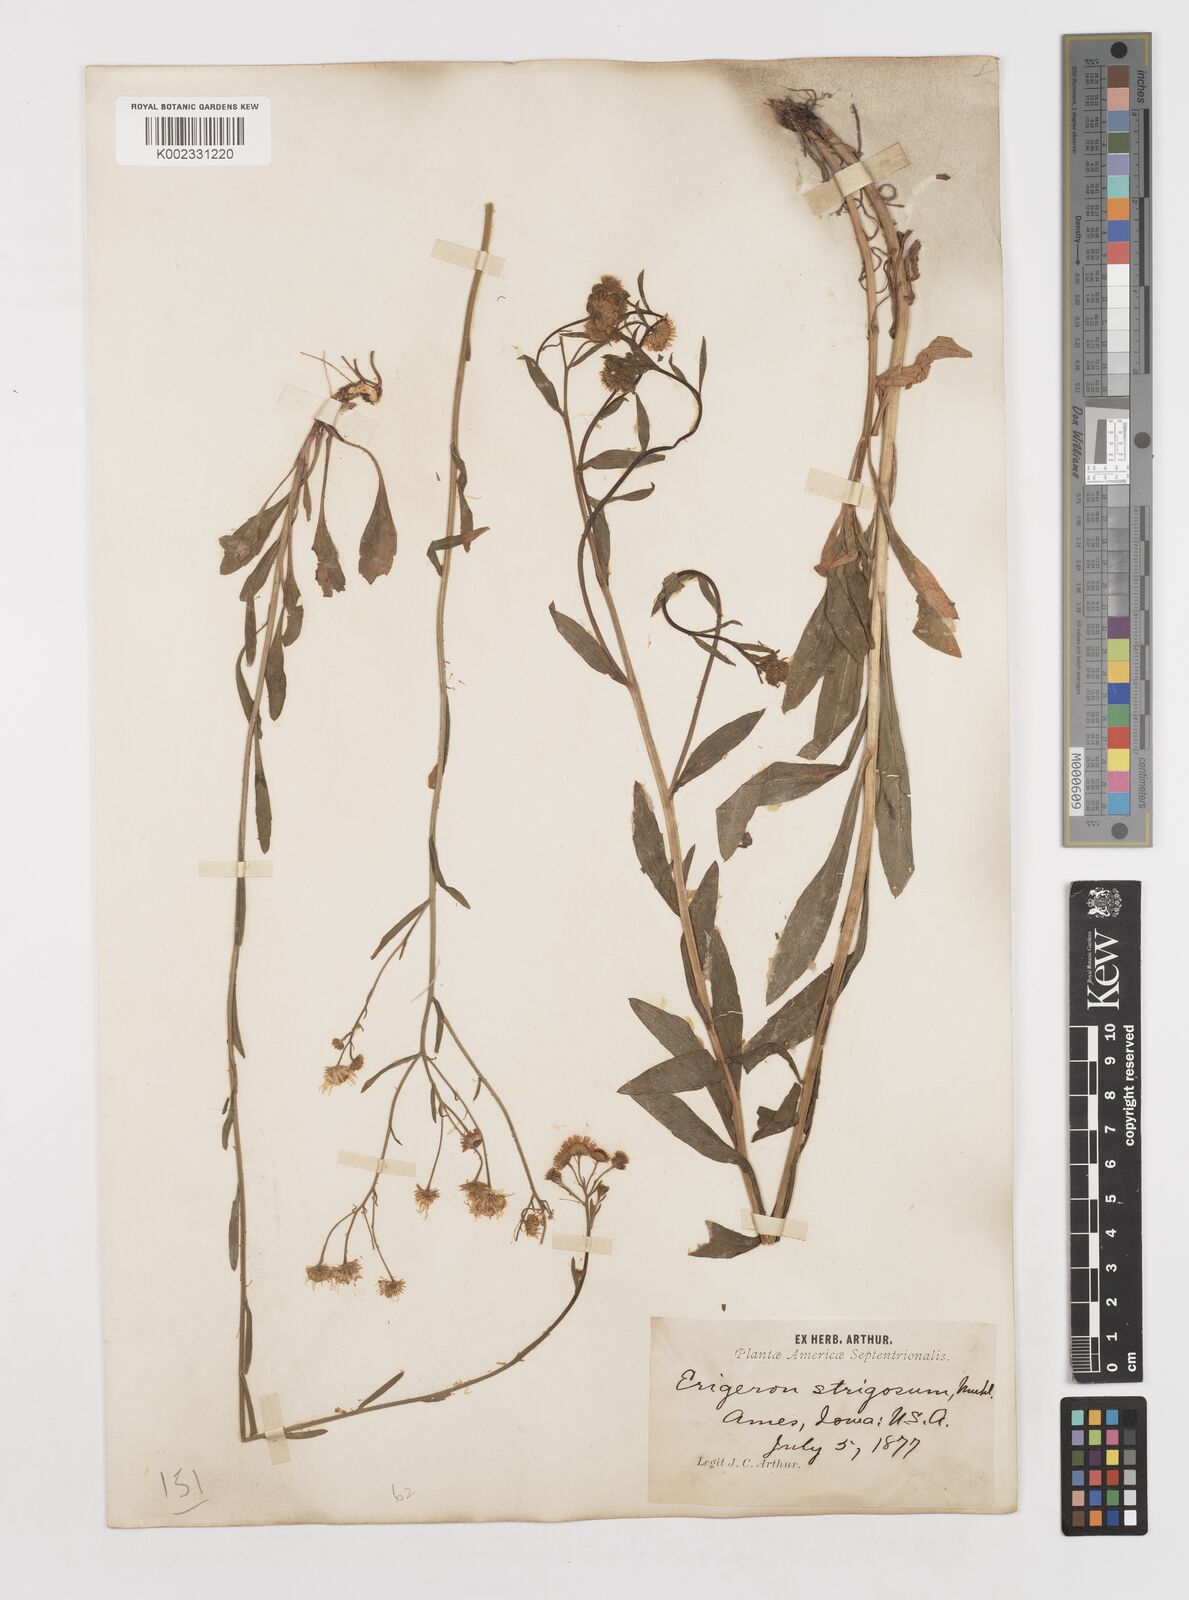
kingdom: Plantae
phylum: Tracheophyta
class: Magnoliopsida
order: Asterales
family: Asteraceae
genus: Erigeron
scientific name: Erigeron strigosus
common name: Common eastern fleabane
